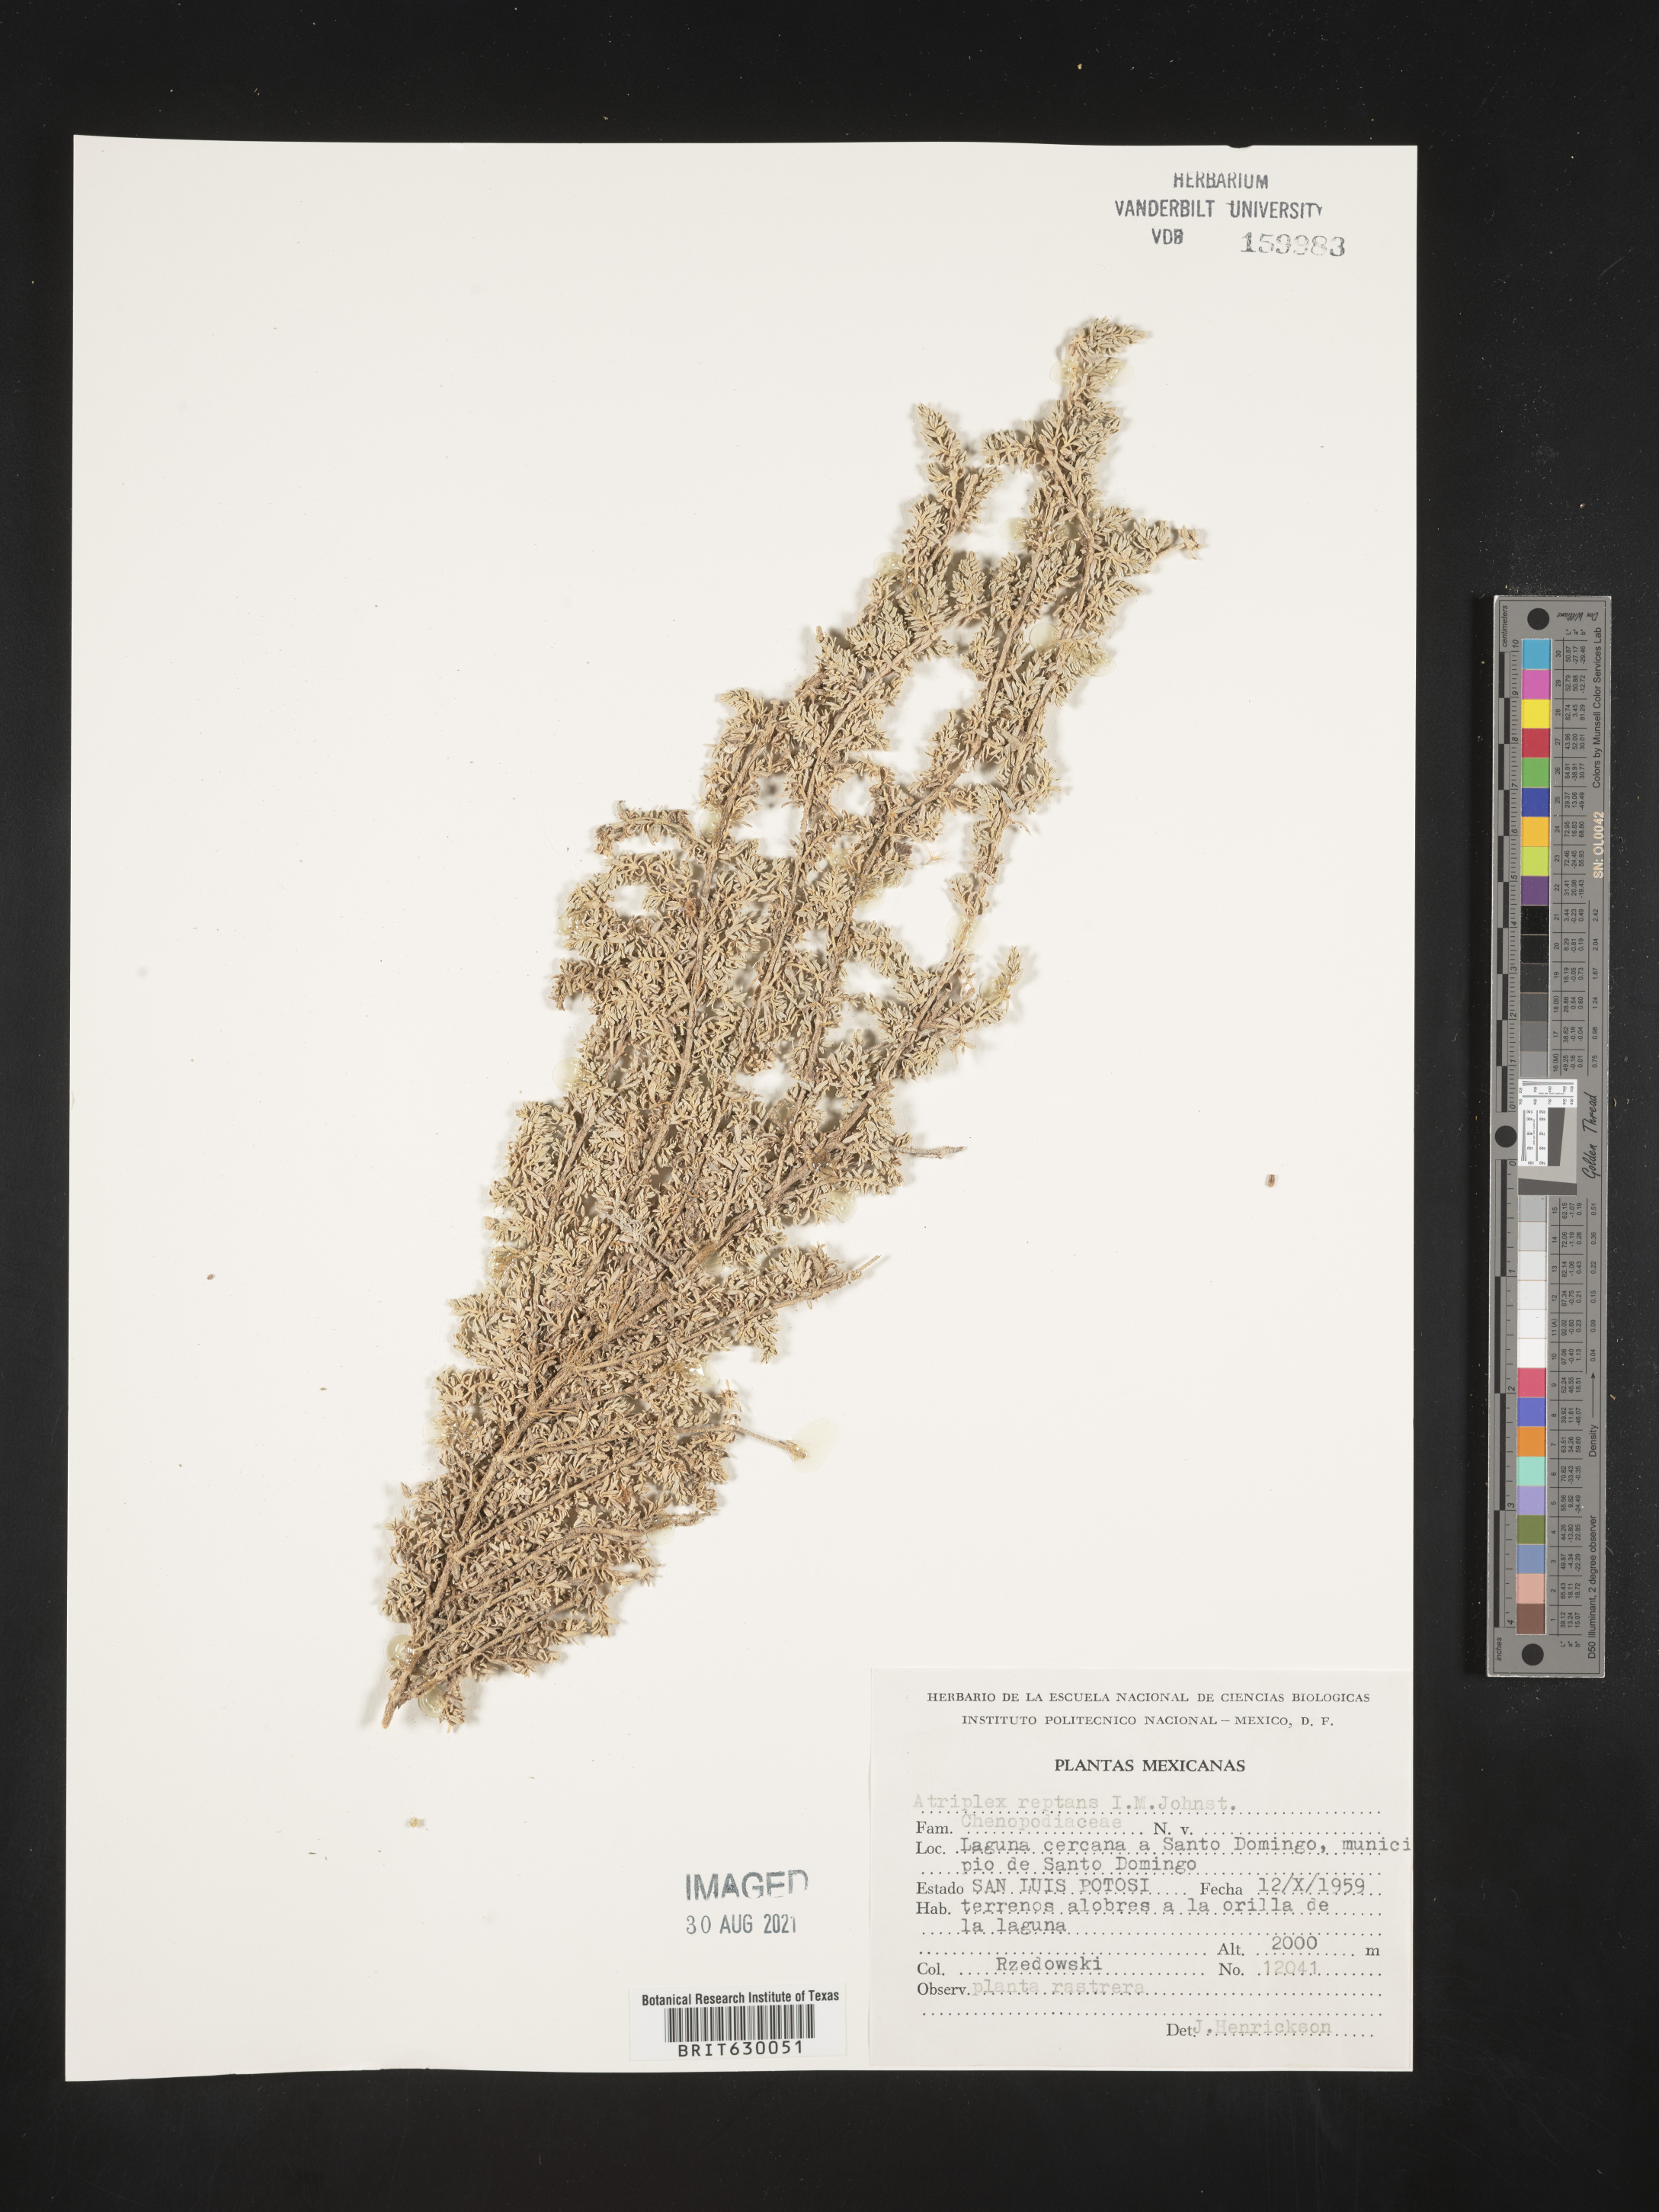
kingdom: Plantae
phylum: Tracheophyta
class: Magnoliopsida
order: Caryophyllales
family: Amaranthaceae
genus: Atriplex
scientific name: Atriplex
